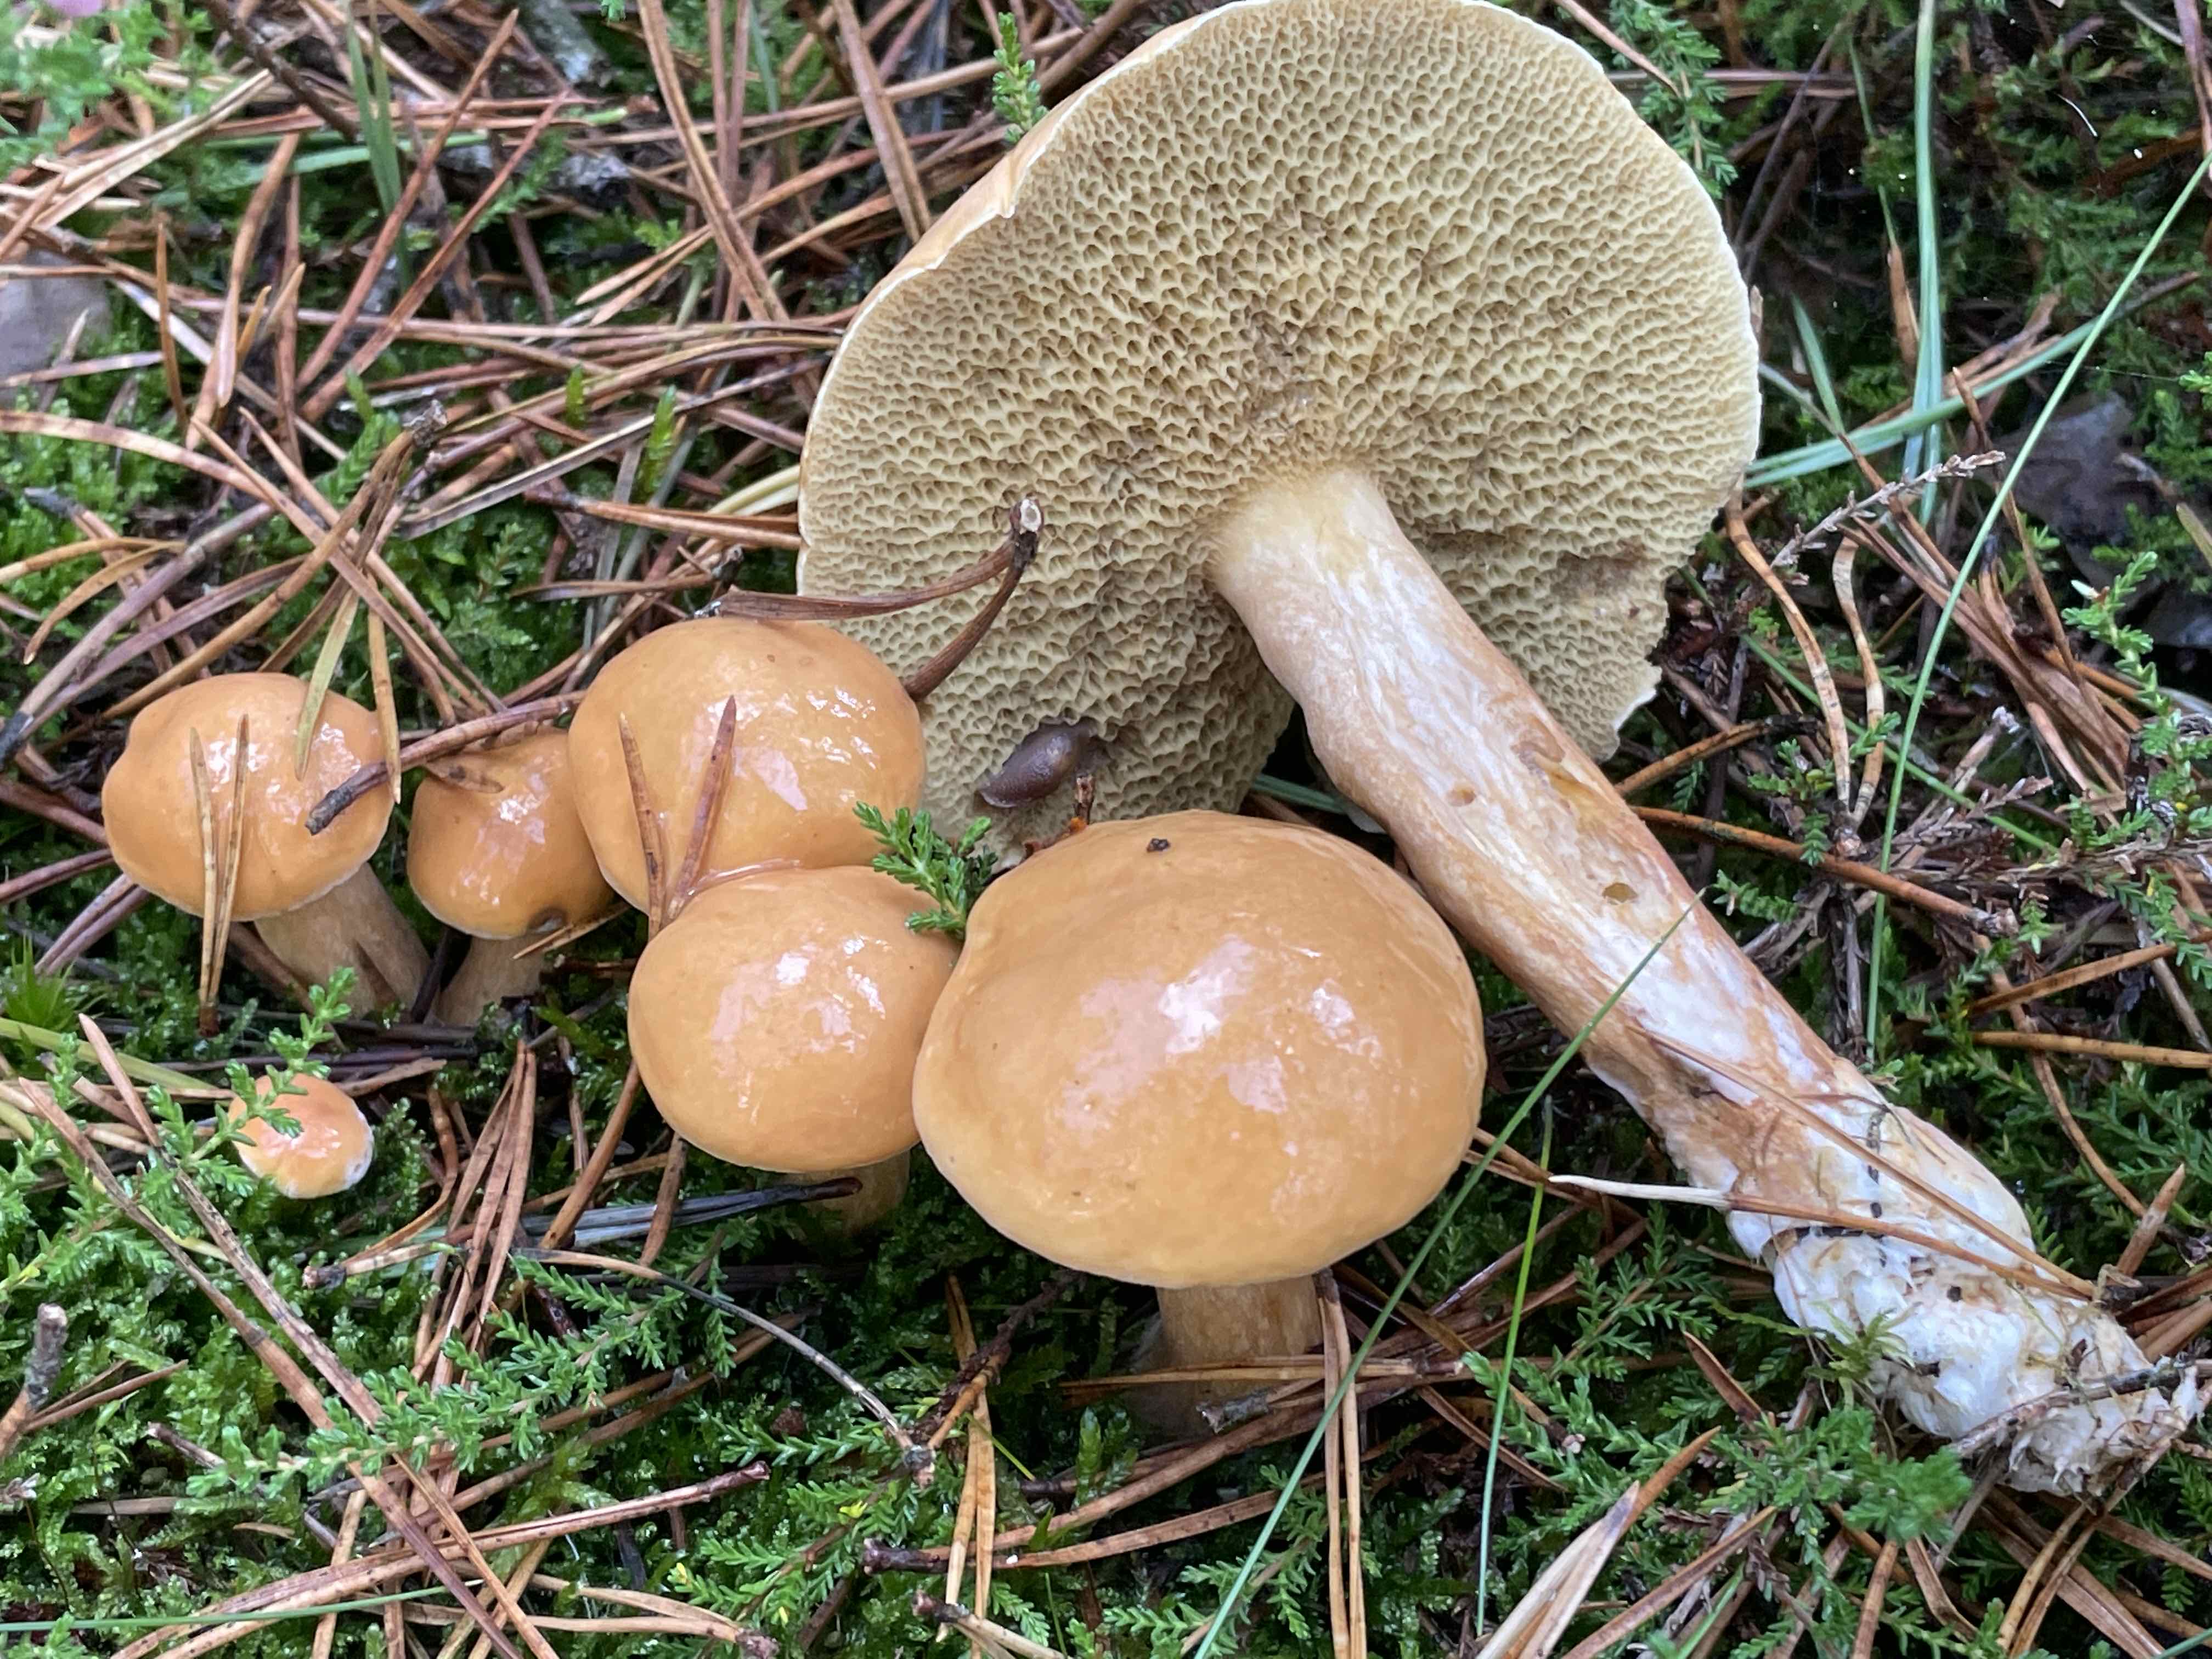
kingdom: Fungi
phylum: Basidiomycota
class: Agaricomycetes
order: Boletales
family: Suillaceae
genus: Suillus
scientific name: Suillus bovinus
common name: grovporet slimrørhat
